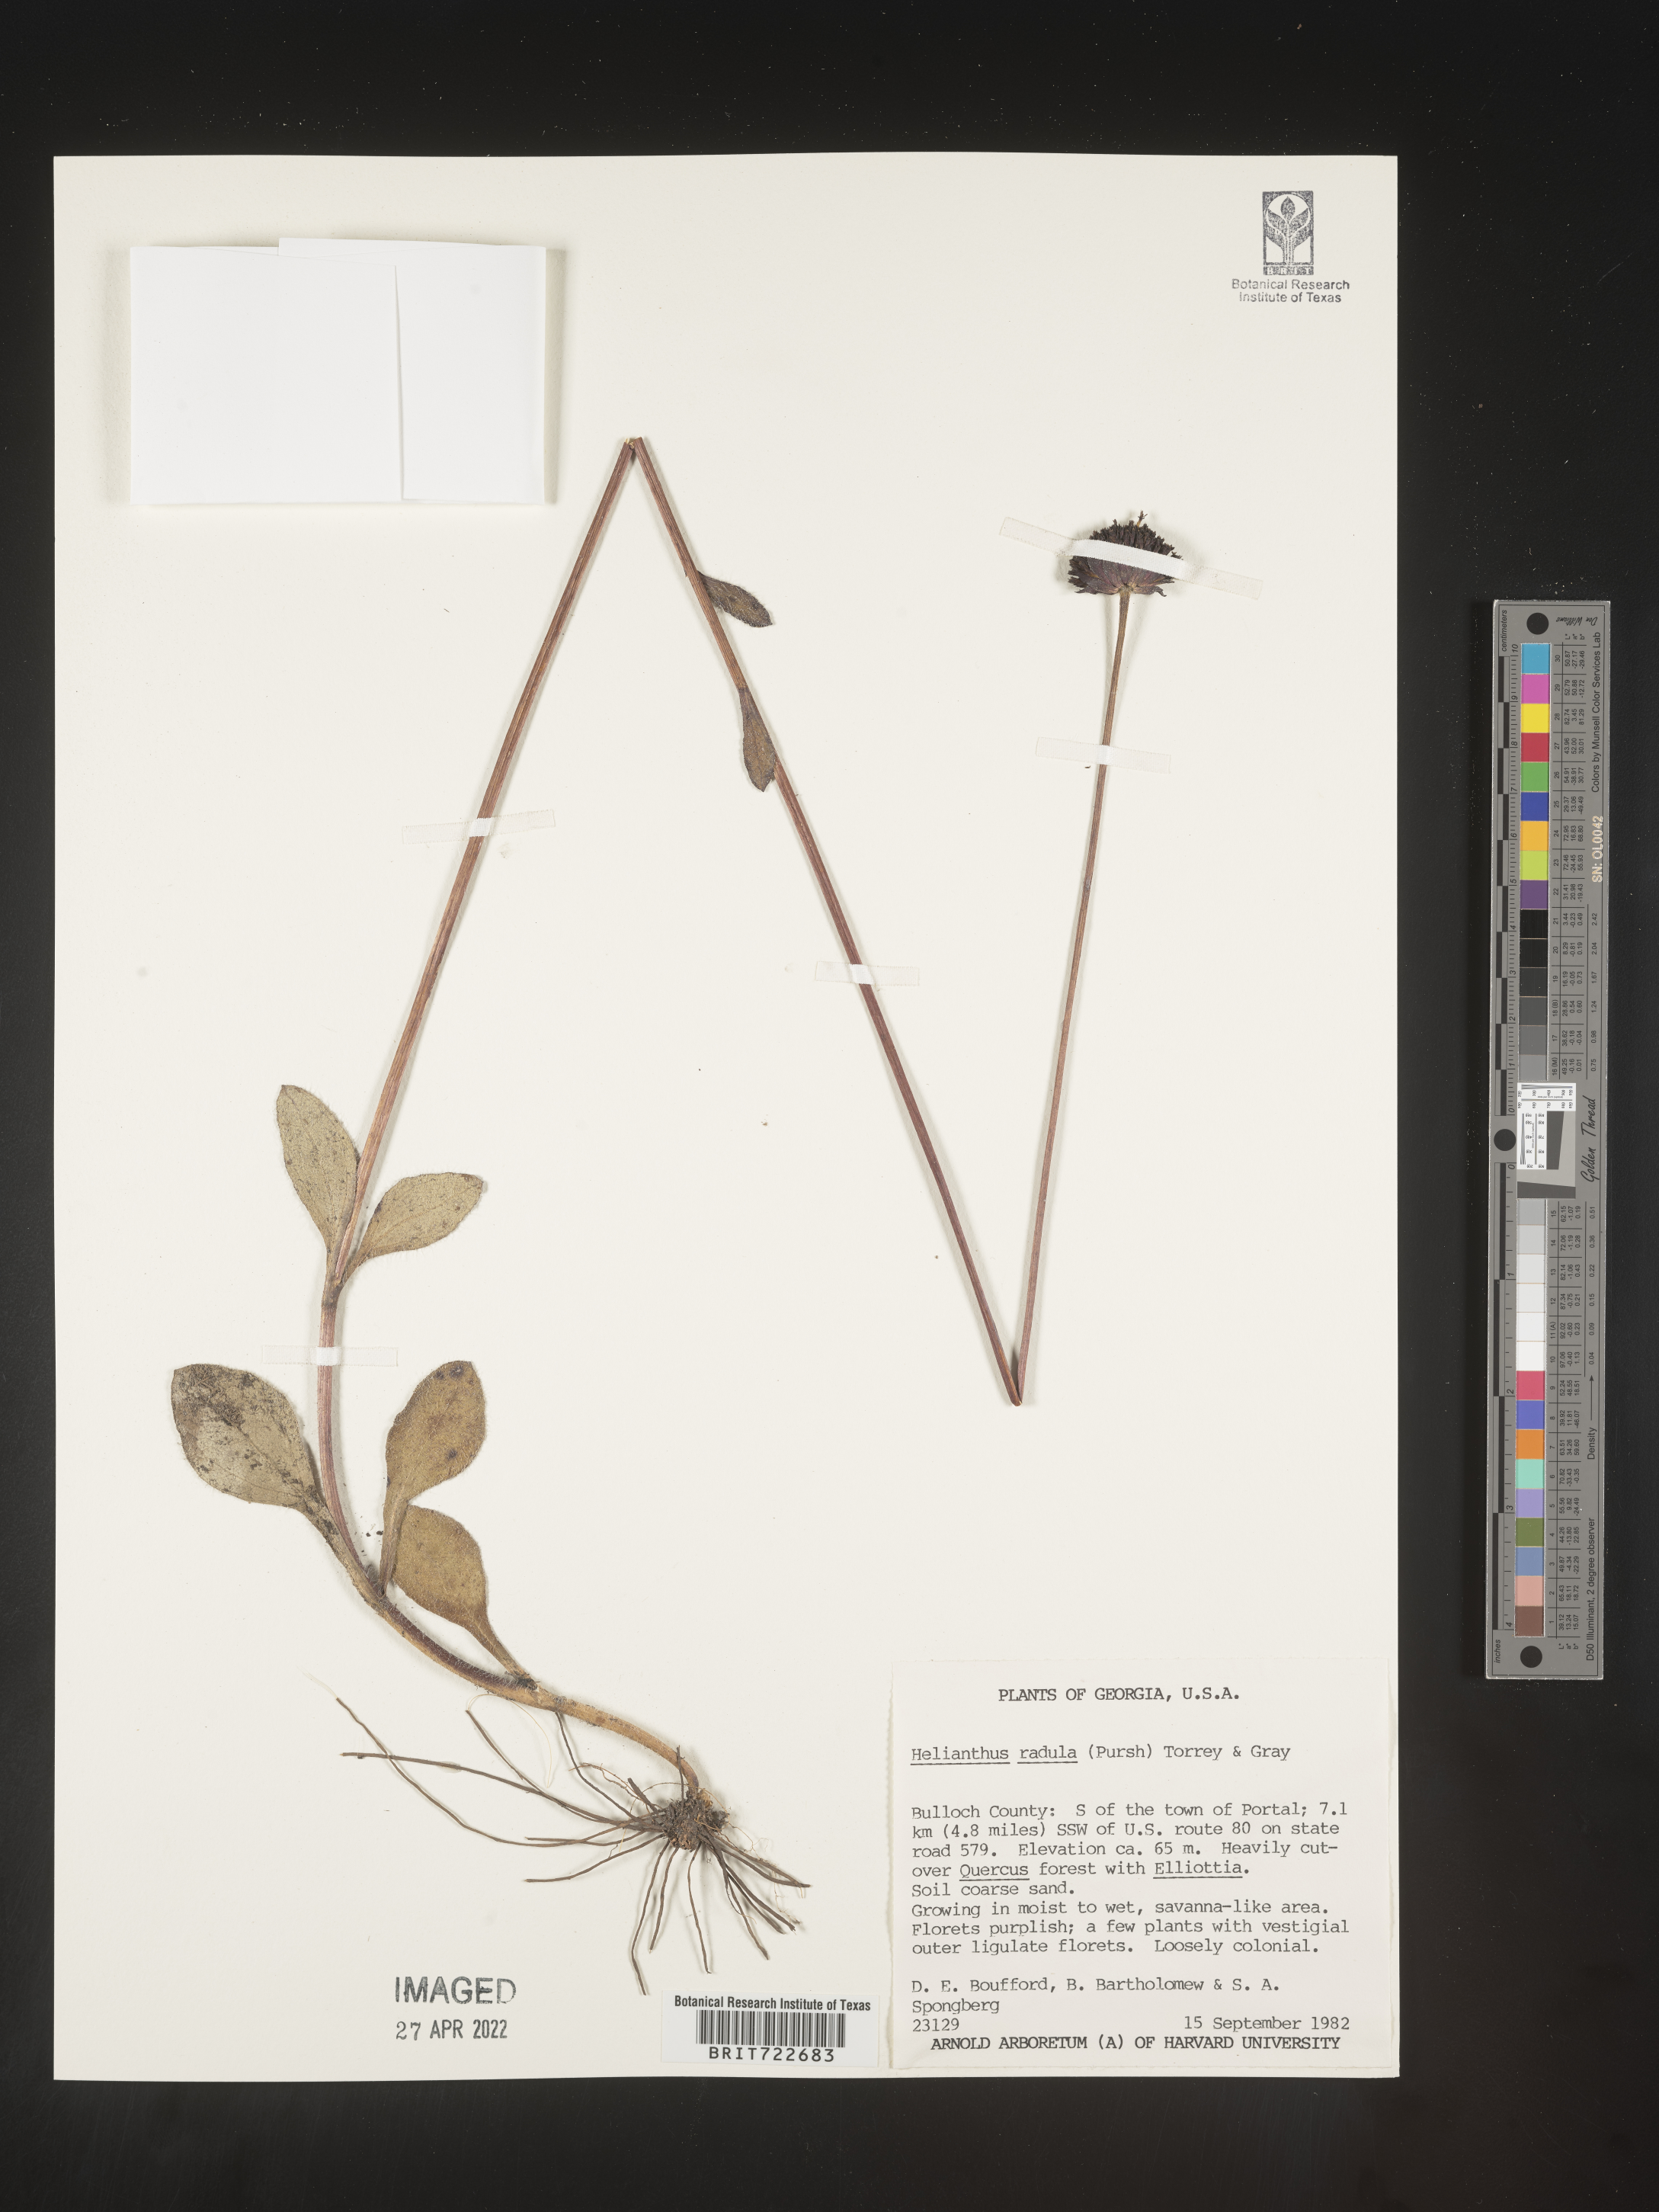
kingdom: Plantae
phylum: Tracheophyta
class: Magnoliopsida
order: Asterales
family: Asteraceae
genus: Helianthus
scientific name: Helianthus radula
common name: Pineland sunflower
